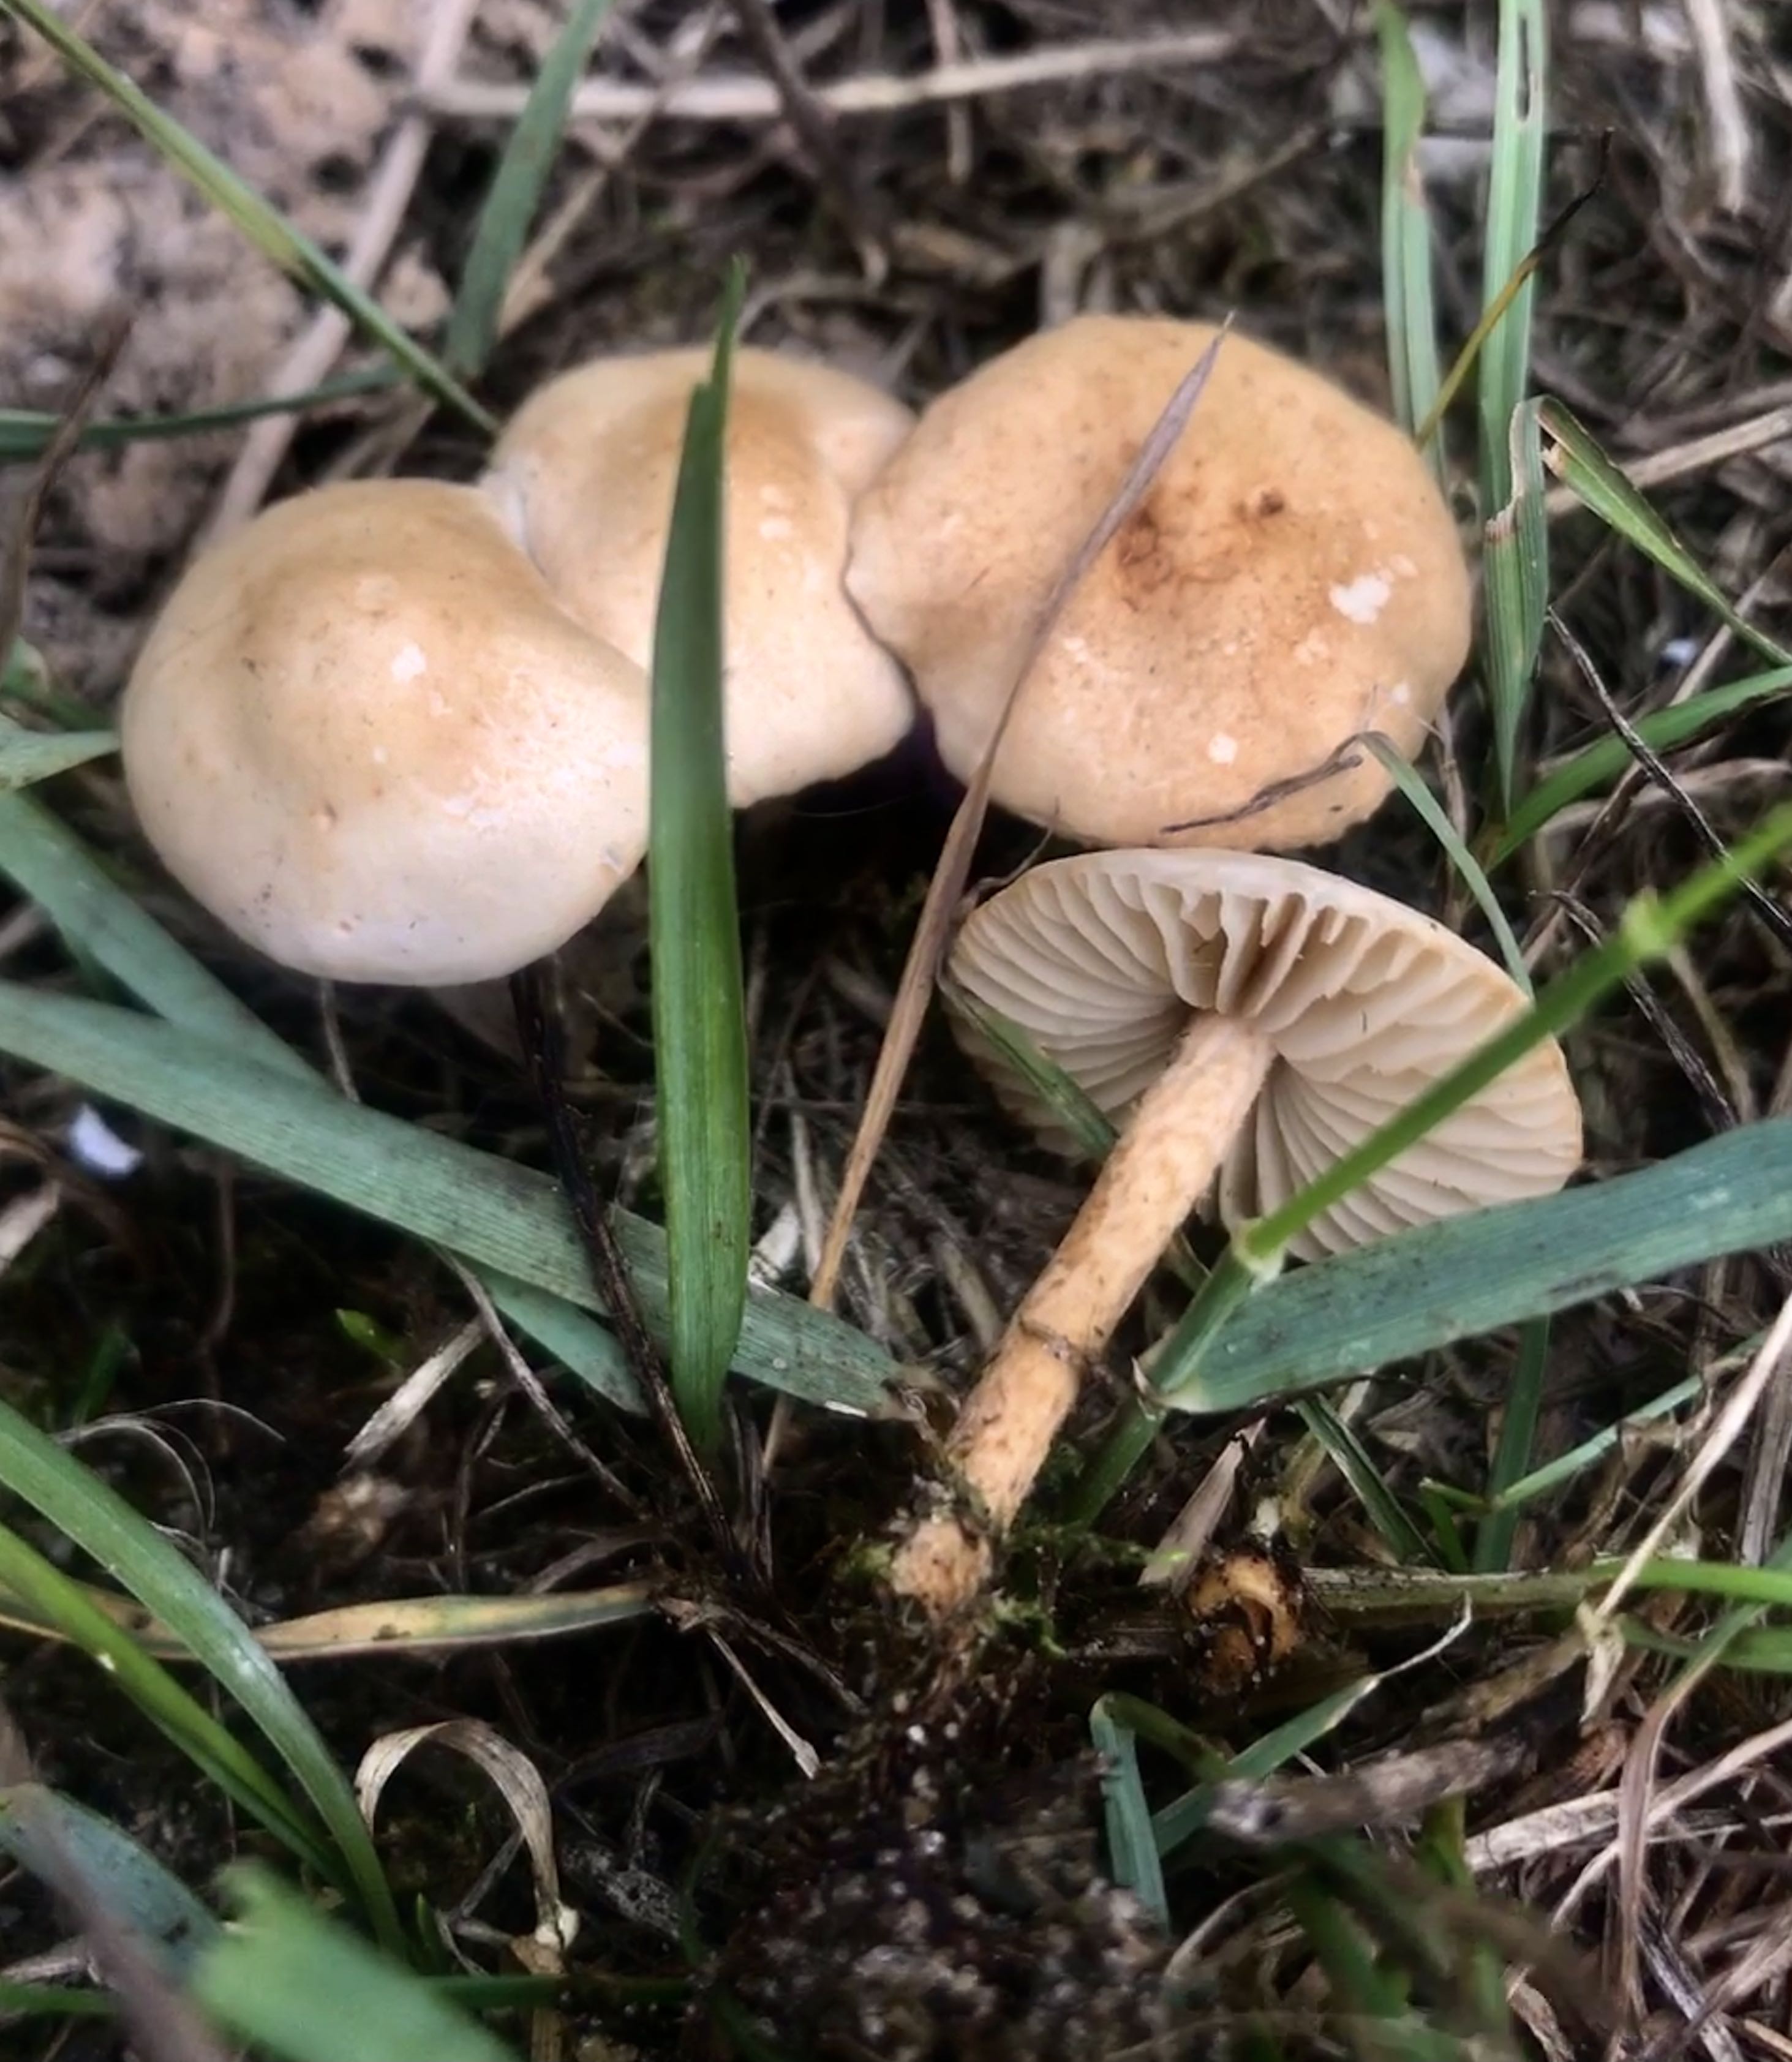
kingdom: Fungi
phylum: Basidiomycota
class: Agaricomycetes
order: Agaricales
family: Marasmiaceae
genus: Marasmius
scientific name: Marasmius oreades
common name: elledans-bruskhat
